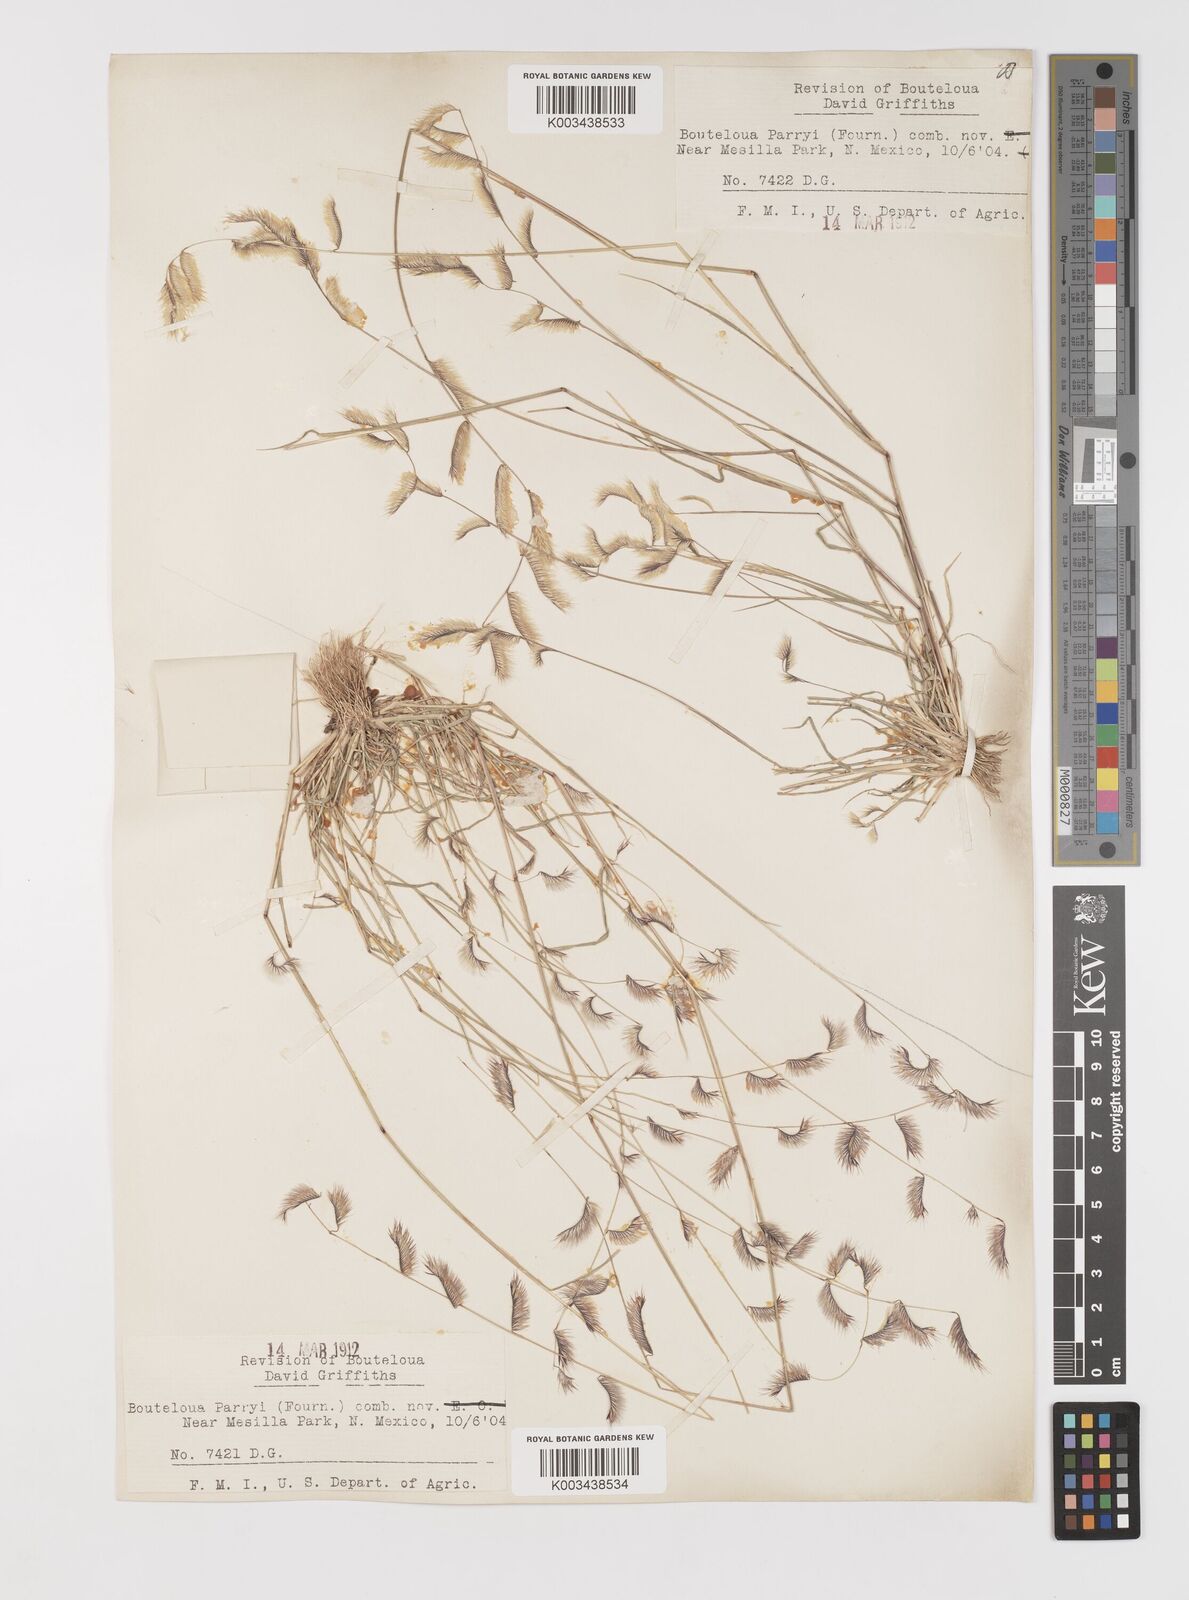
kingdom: Plantae
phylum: Tracheophyta
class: Liliopsida
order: Poales
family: Poaceae
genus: Bouteloua
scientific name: Bouteloua parryi
